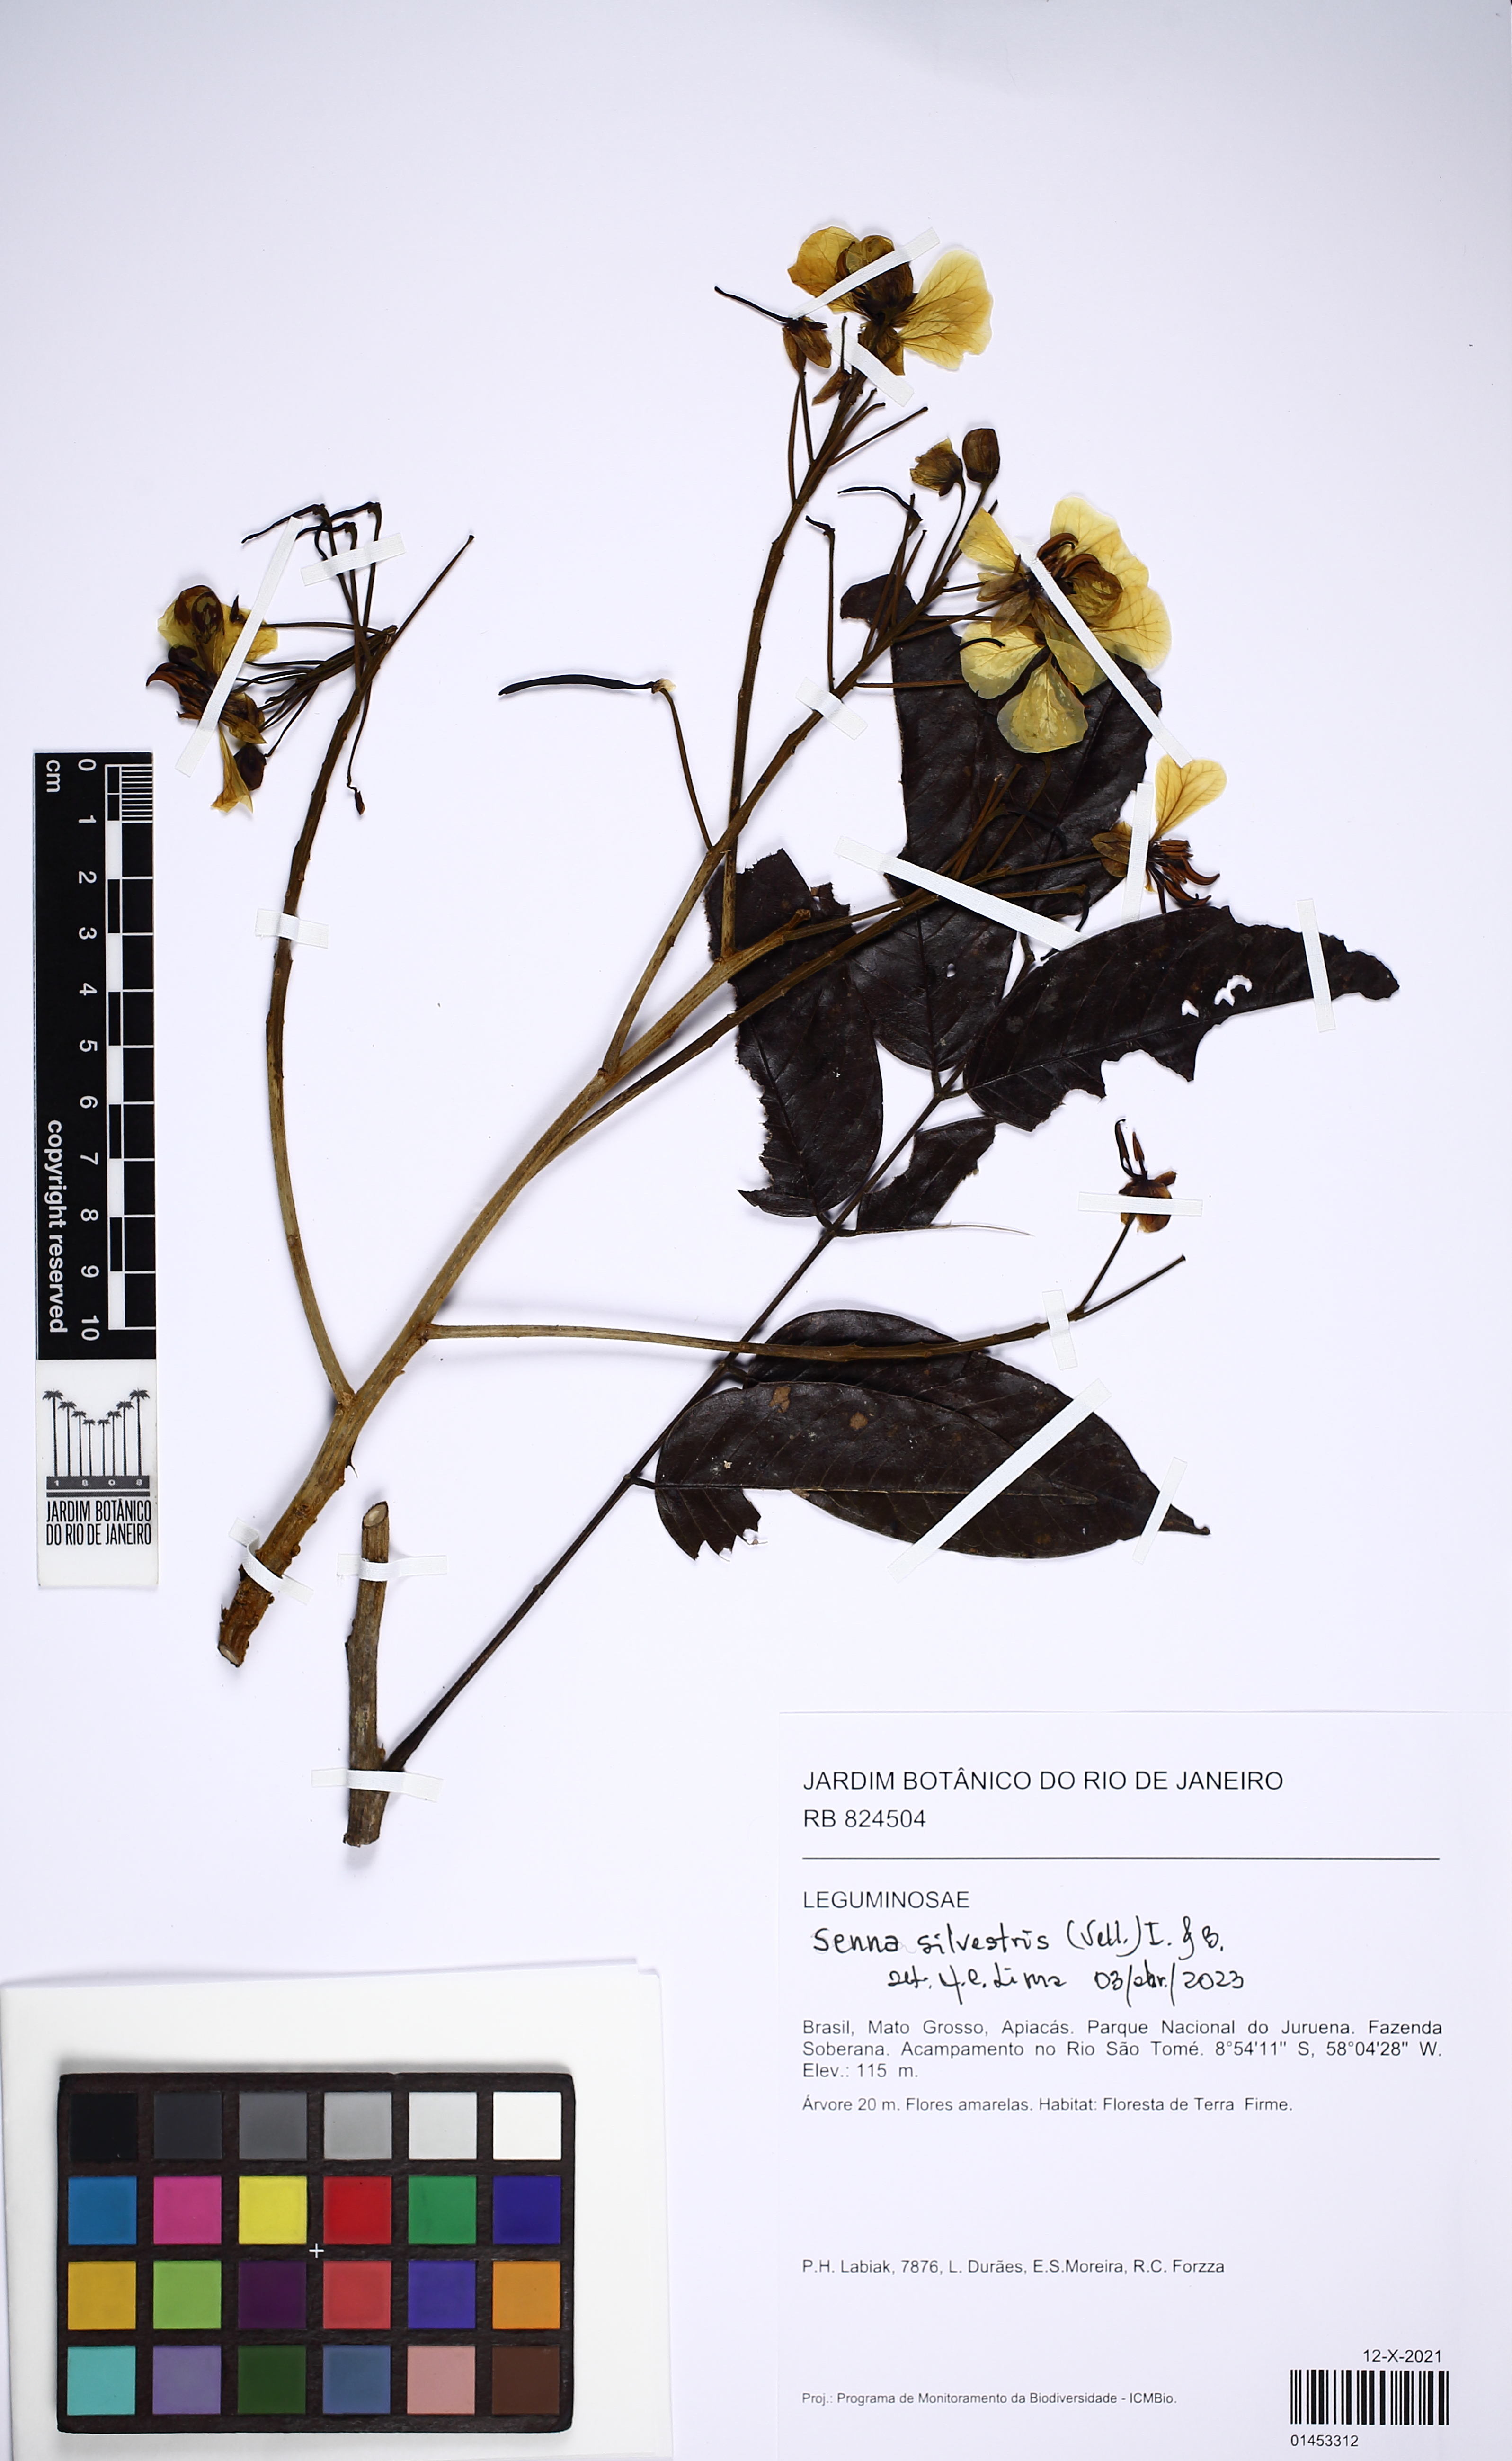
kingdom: Plantae
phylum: Tracheophyta
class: Magnoliopsida
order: Fabales
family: Fabaceae
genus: Senna
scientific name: Senna silvestris
